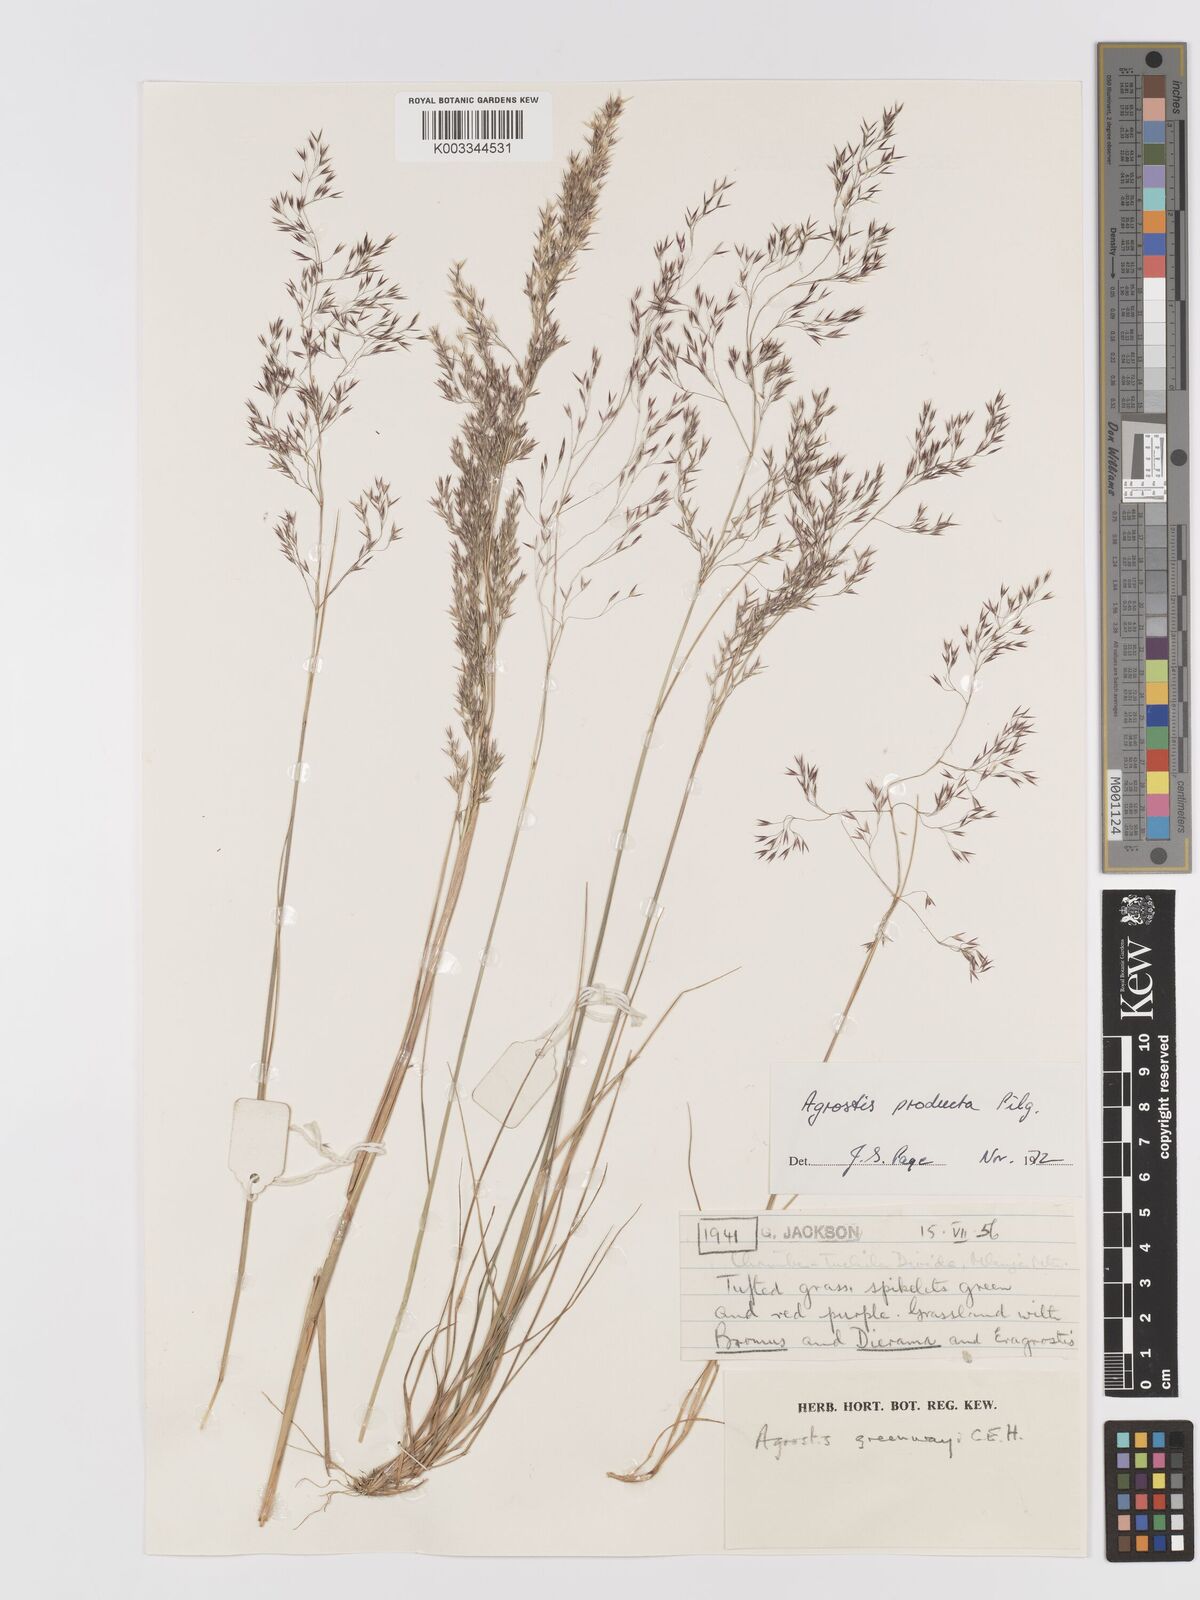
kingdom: Plantae
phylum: Tracheophyta
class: Liliopsida
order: Poales
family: Poaceae
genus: Agrostis
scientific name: Agrostis producta
